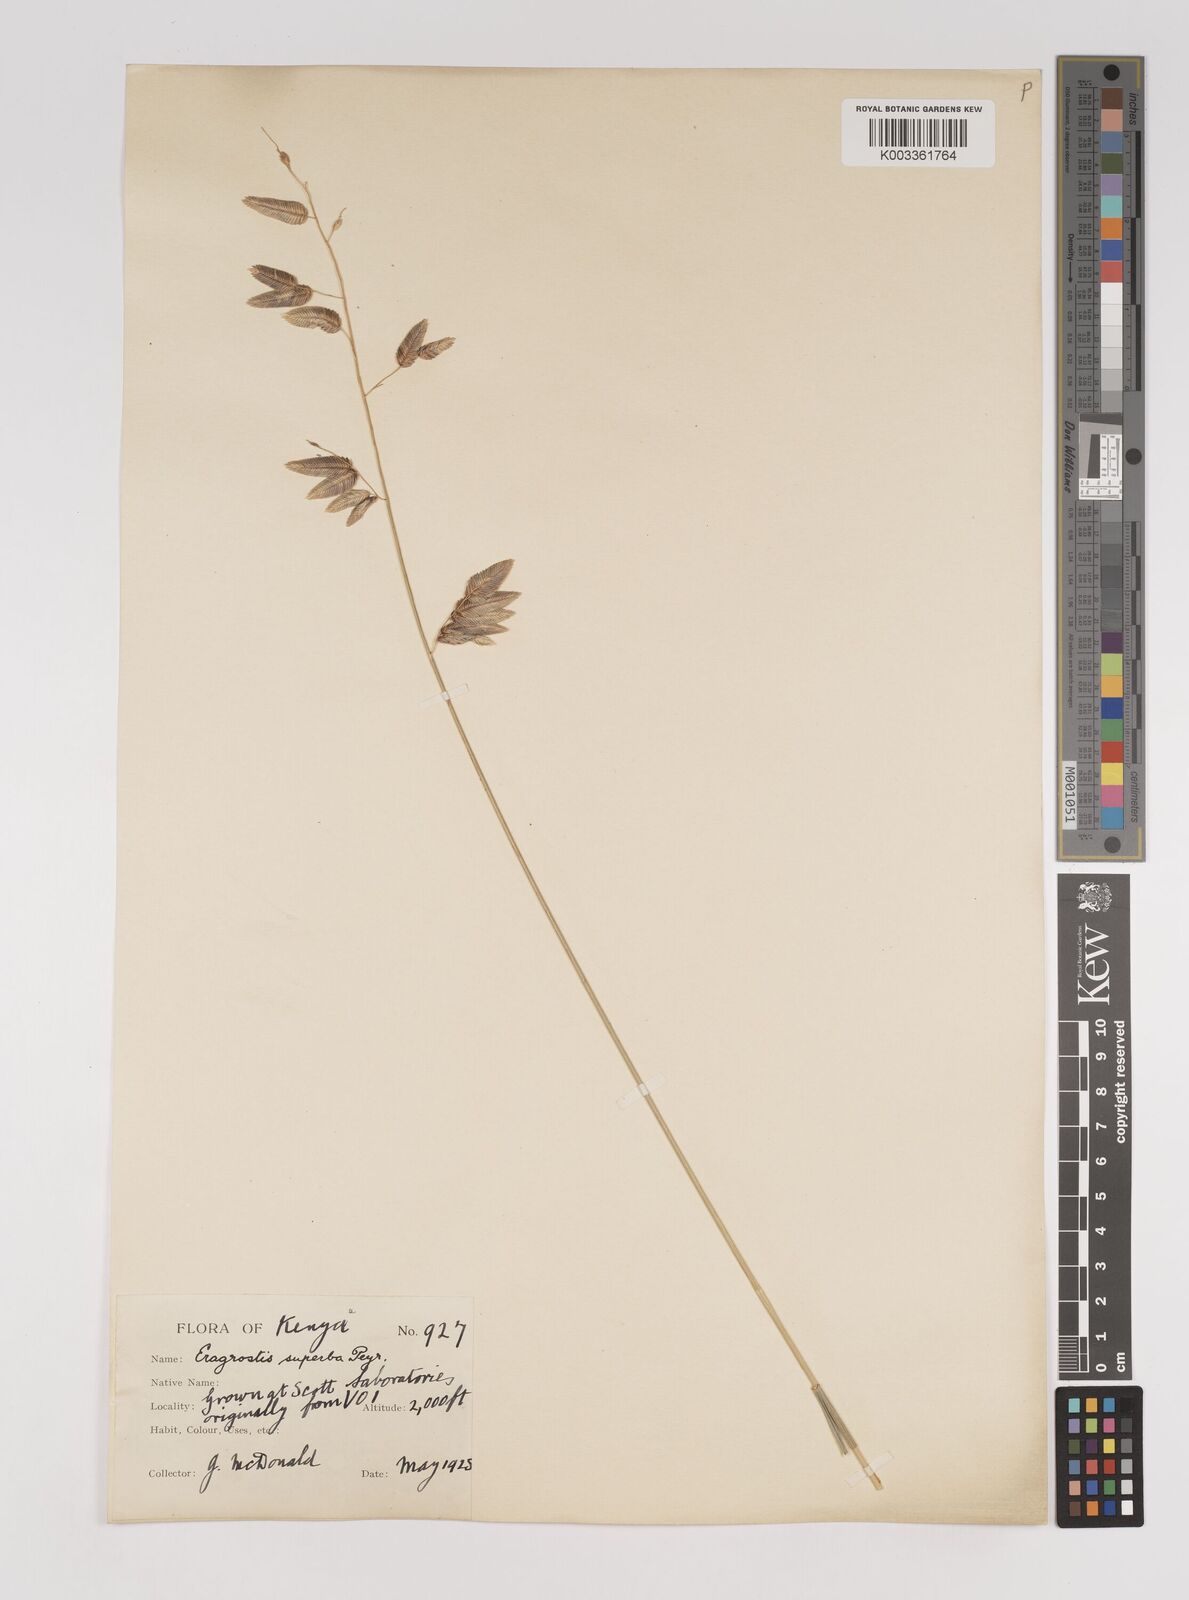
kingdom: Plantae
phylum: Tracheophyta
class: Liliopsida
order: Poales
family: Poaceae
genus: Eragrostis
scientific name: Eragrostis superba
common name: Wilman lovegrass
